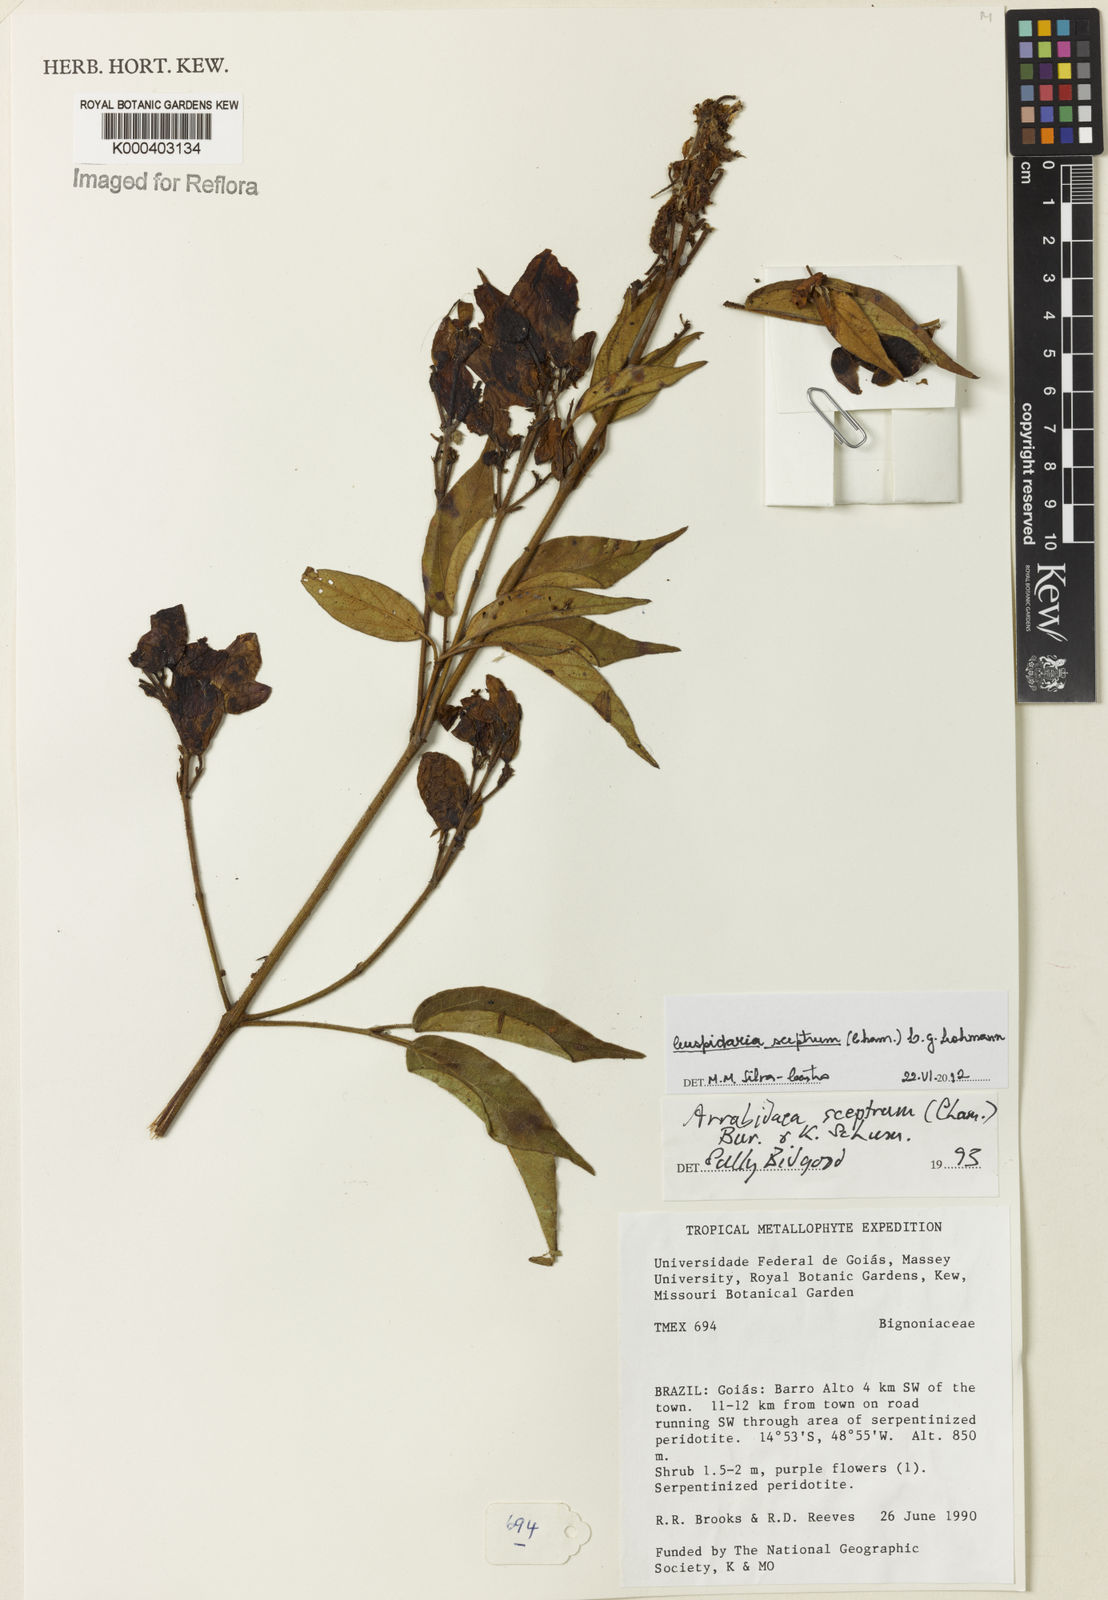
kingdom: Plantae
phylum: Tracheophyta
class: Magnoliopsida
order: Lamiales
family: Bignoniaceae
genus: Cuspidaria
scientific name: Cuspidaria sceptrum
